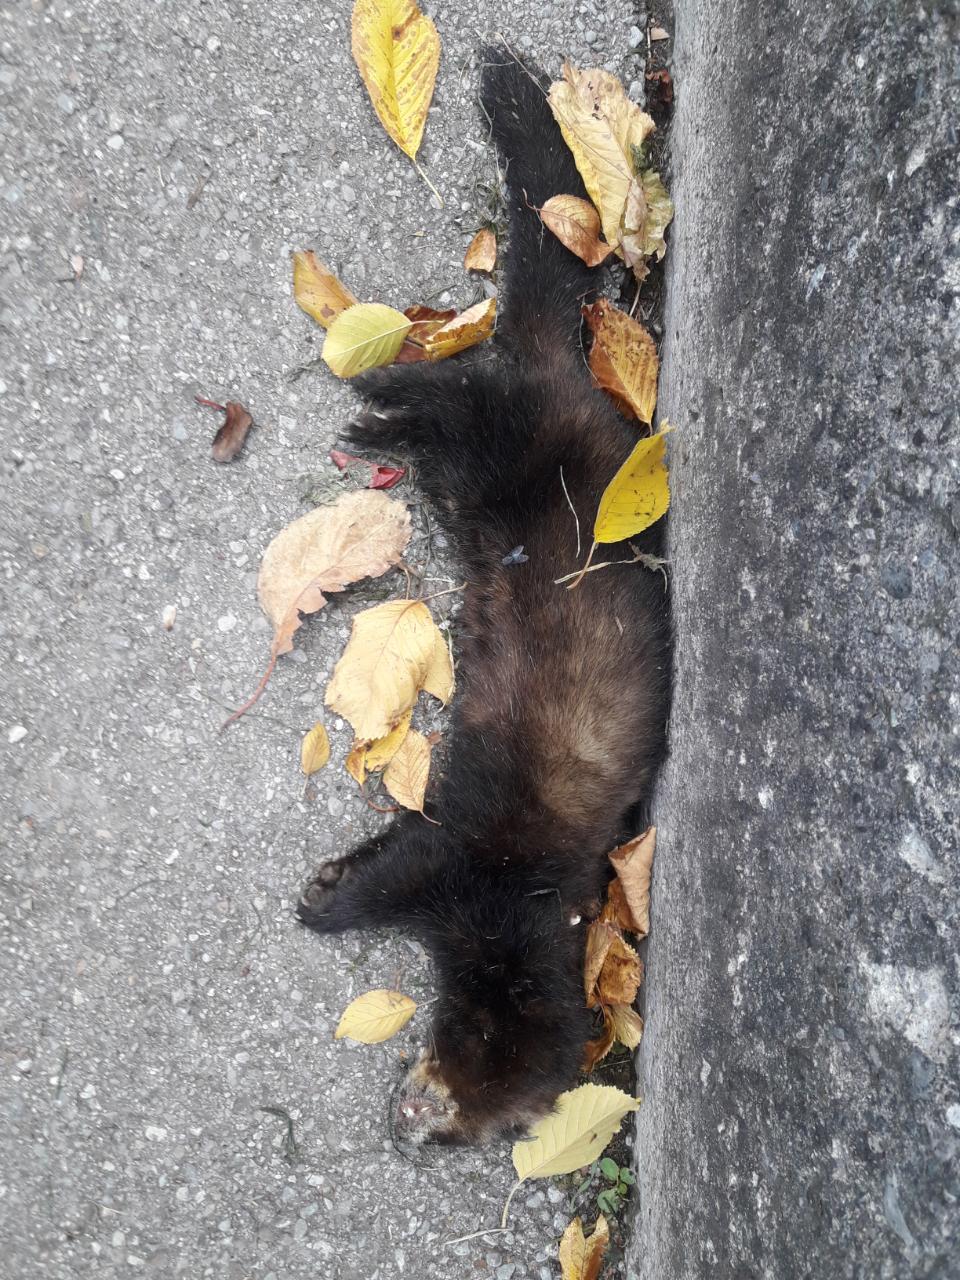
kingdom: Animalia
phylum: Chordata
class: Mammalia
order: Carnivora
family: Mustelidae
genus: Mustela
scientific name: Mustela putorius
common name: European polecat
